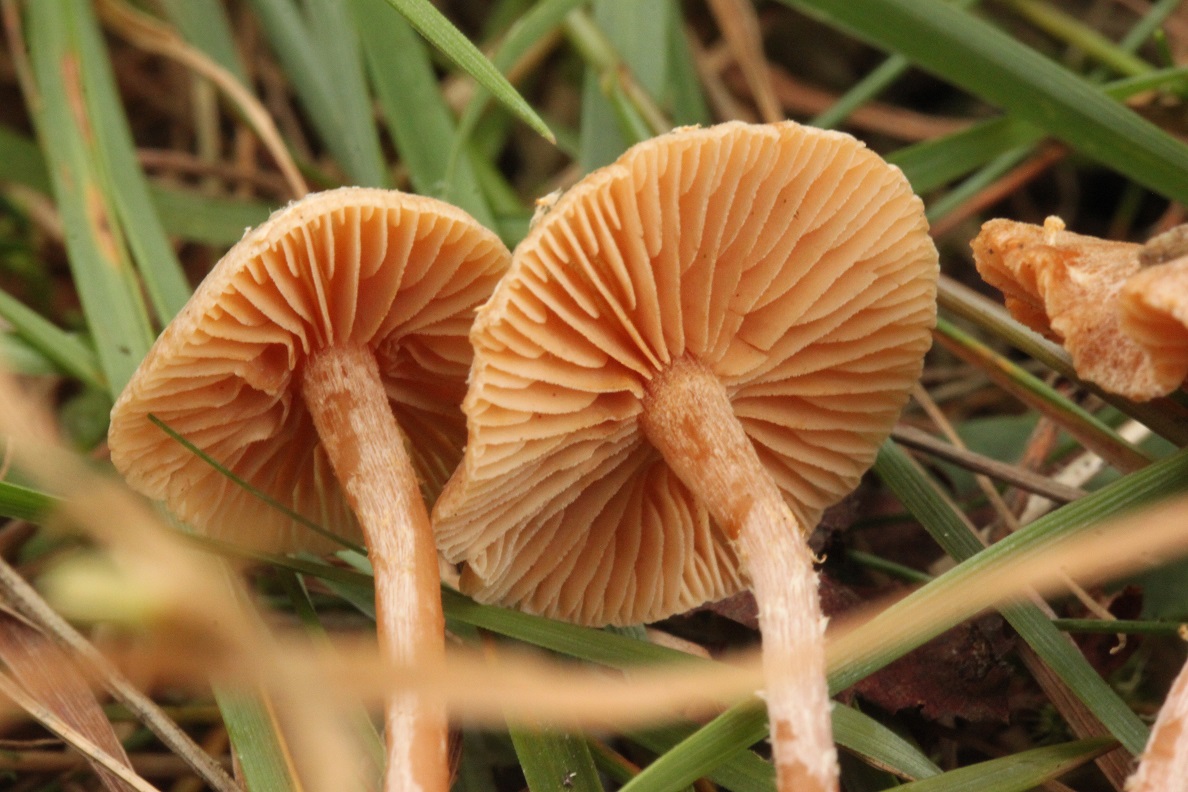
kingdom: Fungi
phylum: Basidiomycota
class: Agaricomycetes
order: Agaricales
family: Tubariaceae
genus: Tubaria
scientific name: Tubaria conspersa
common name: bleg fnughat
